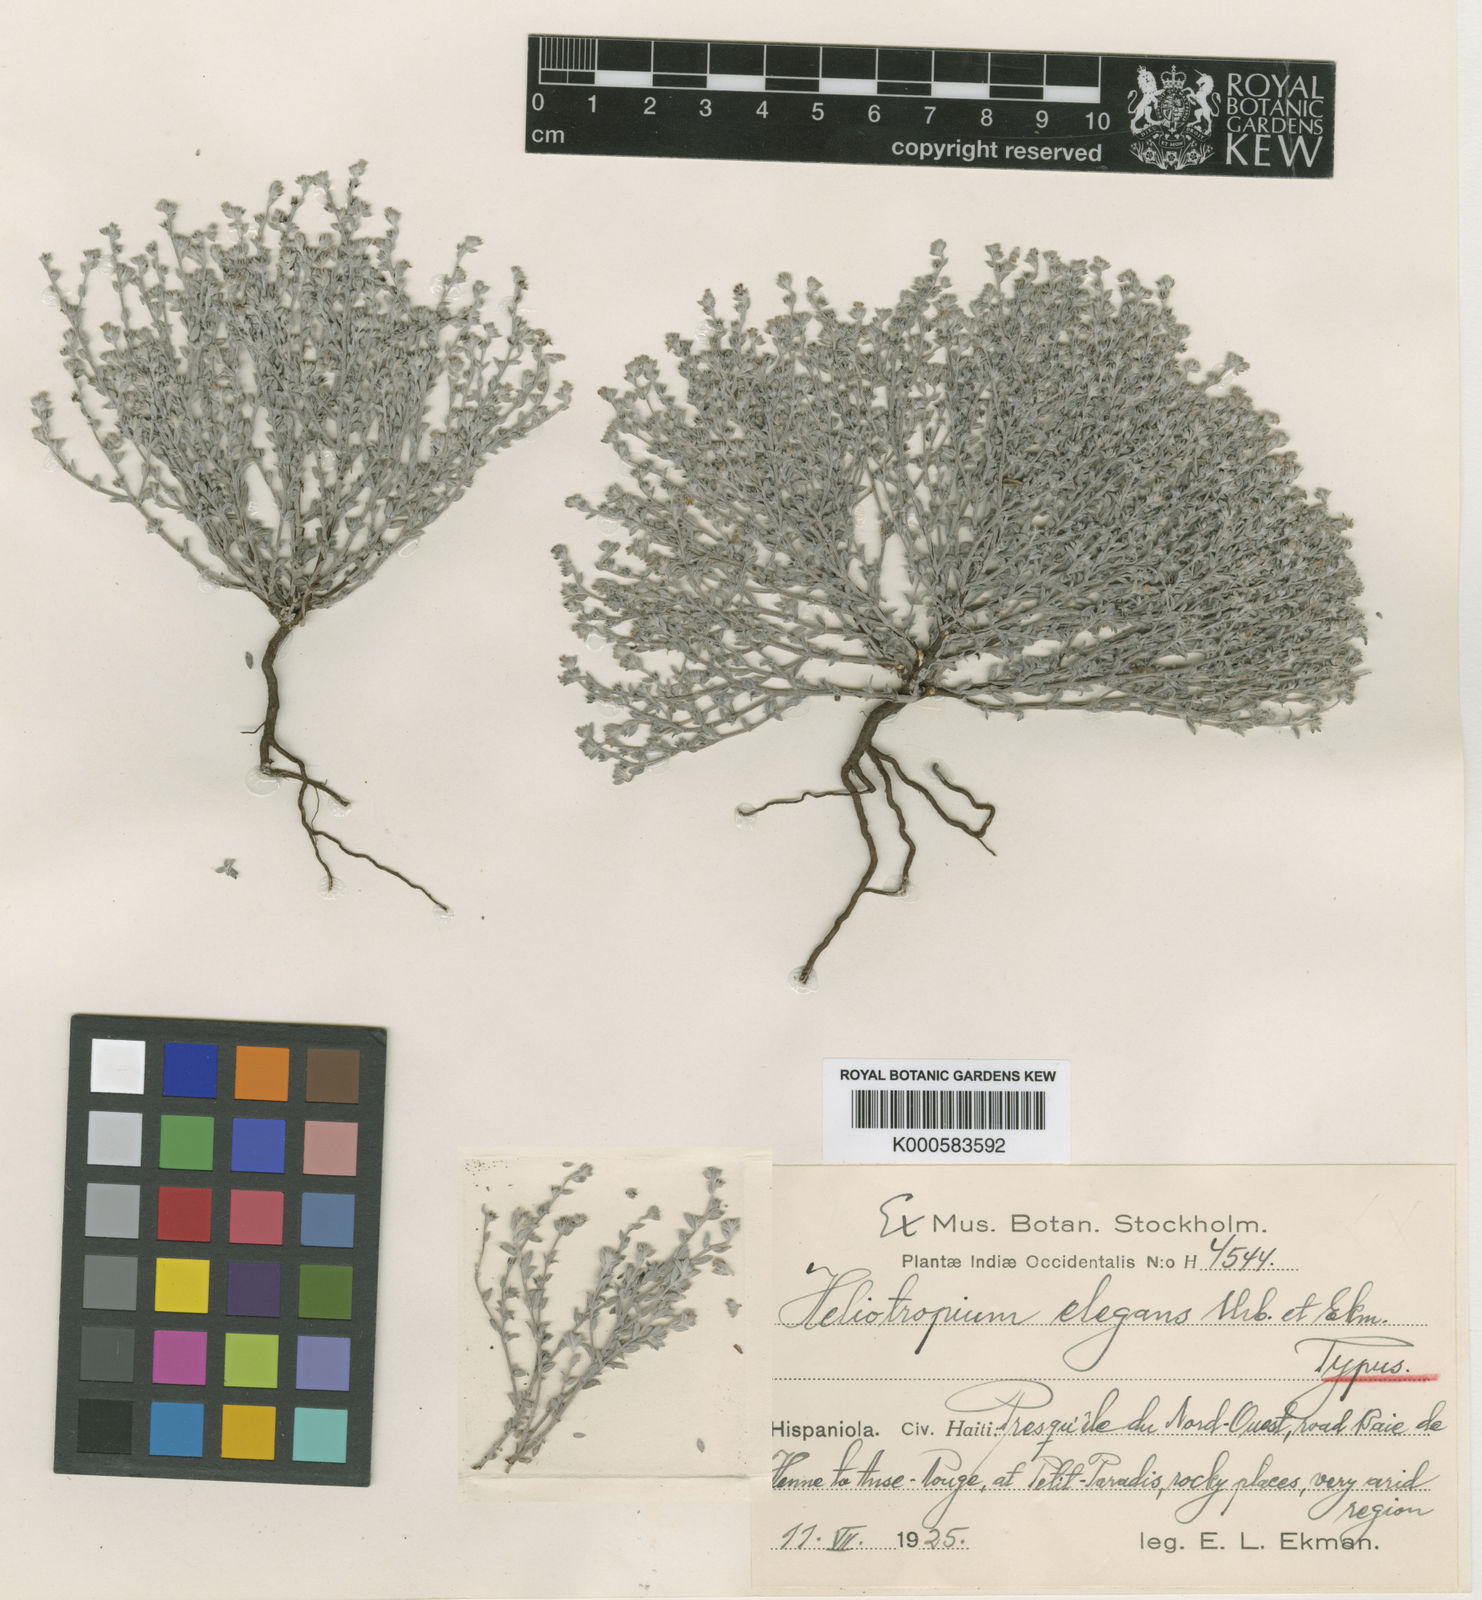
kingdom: Plantae
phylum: Tracheophyta
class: Magnoliopsida
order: Boraginales
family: Heliotropiaceae
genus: Euploca
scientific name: Euploca microphylla
